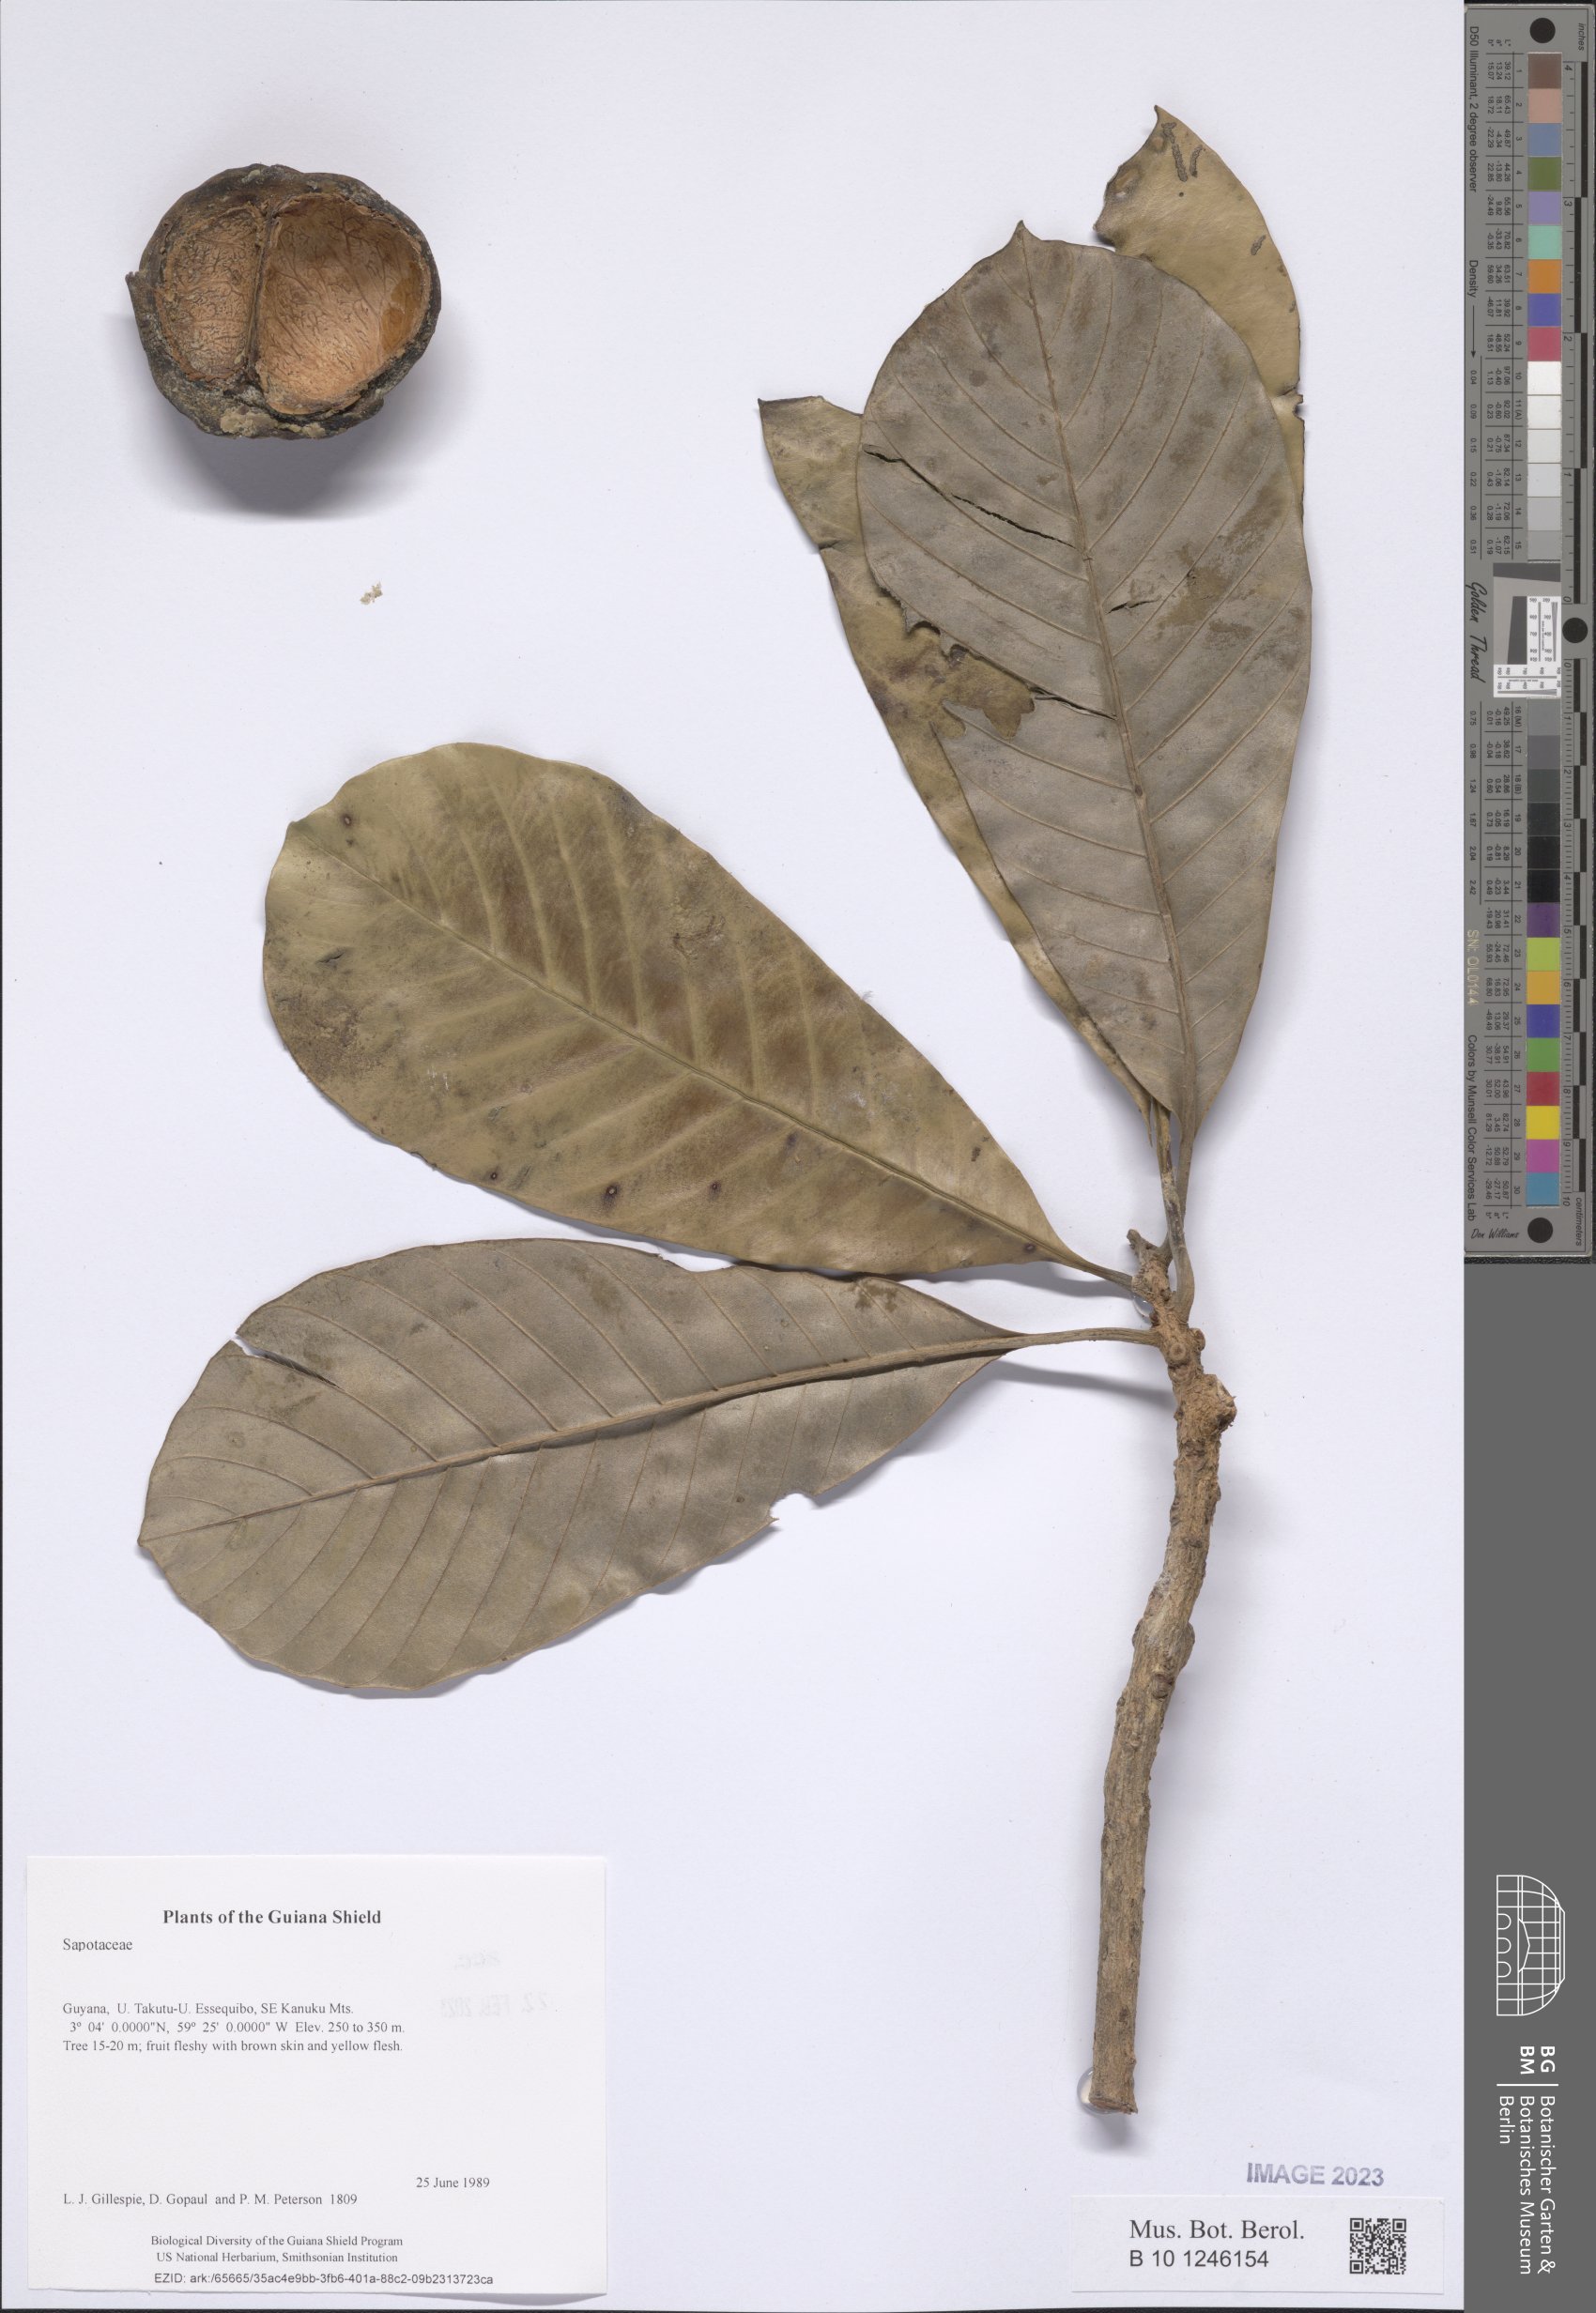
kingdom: Plantae
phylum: Tracheophyta
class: Magnoliopsida
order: Ericales
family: Sapotaceae
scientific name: Sapotaceae
